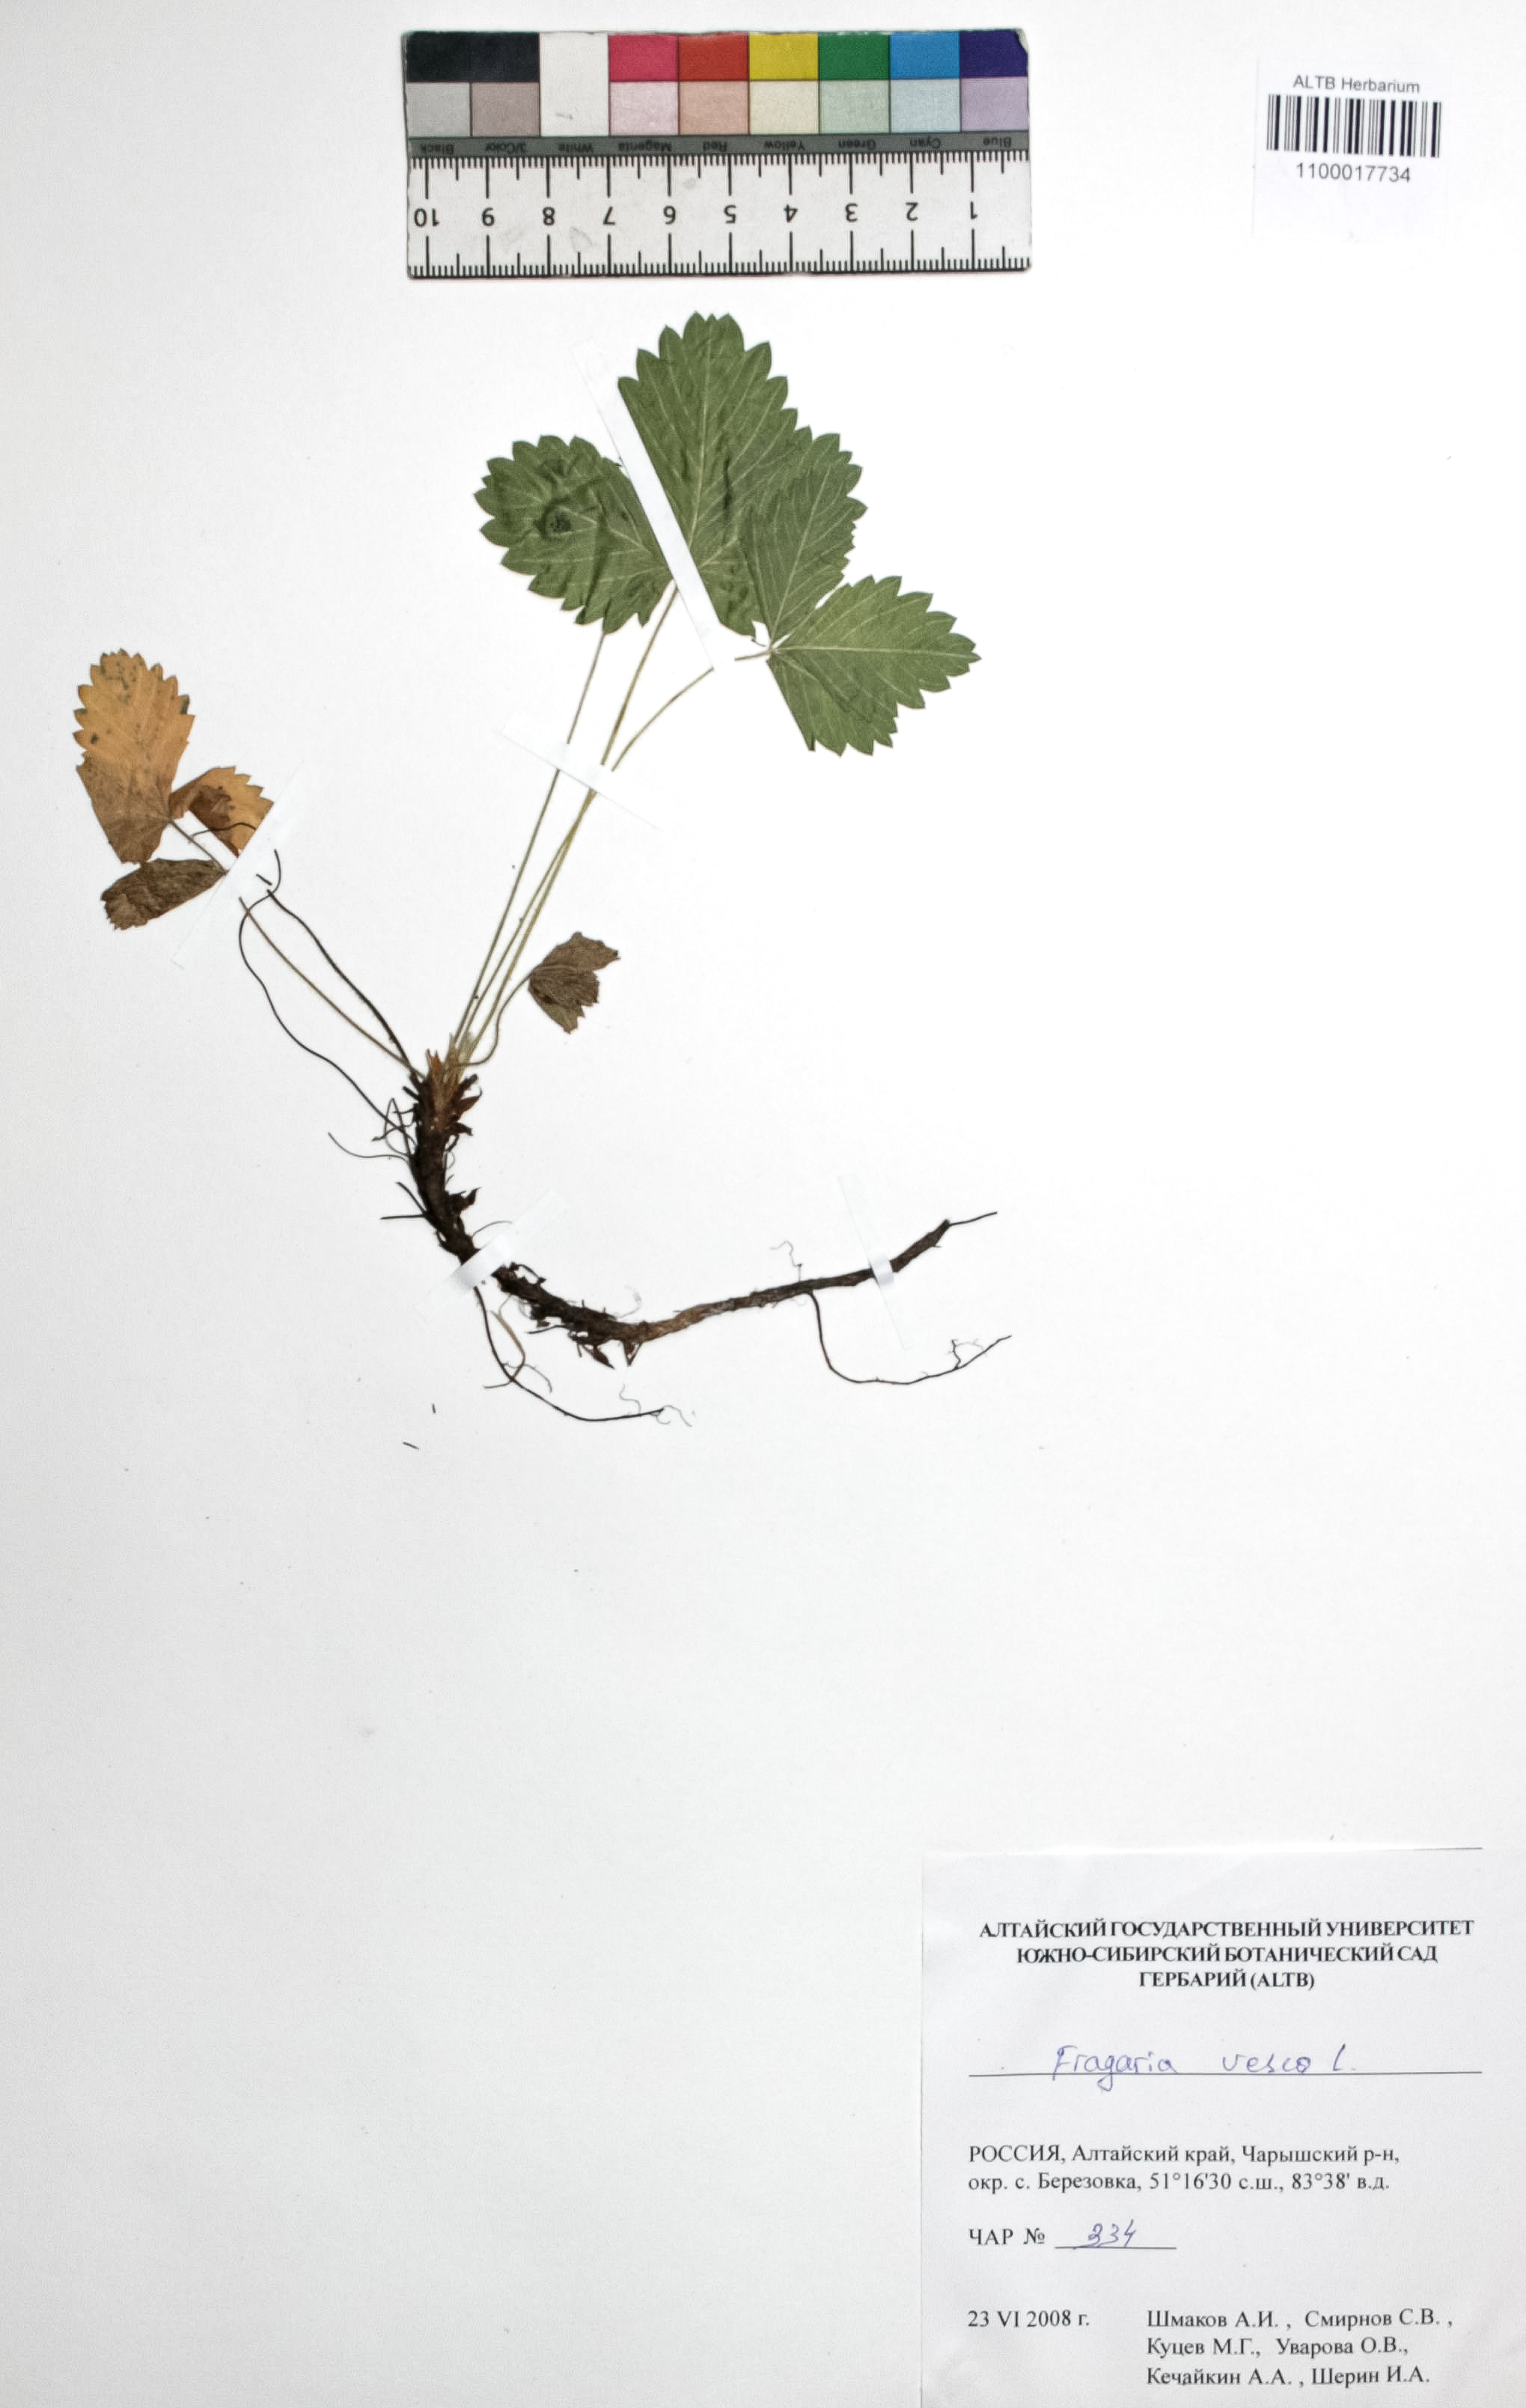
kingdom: Plantae
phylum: Tracheophyta
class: Magnoliopsida
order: Rosales
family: Rosaceae
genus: Fragaria
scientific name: Fragaria vesca
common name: Wild strawberry
